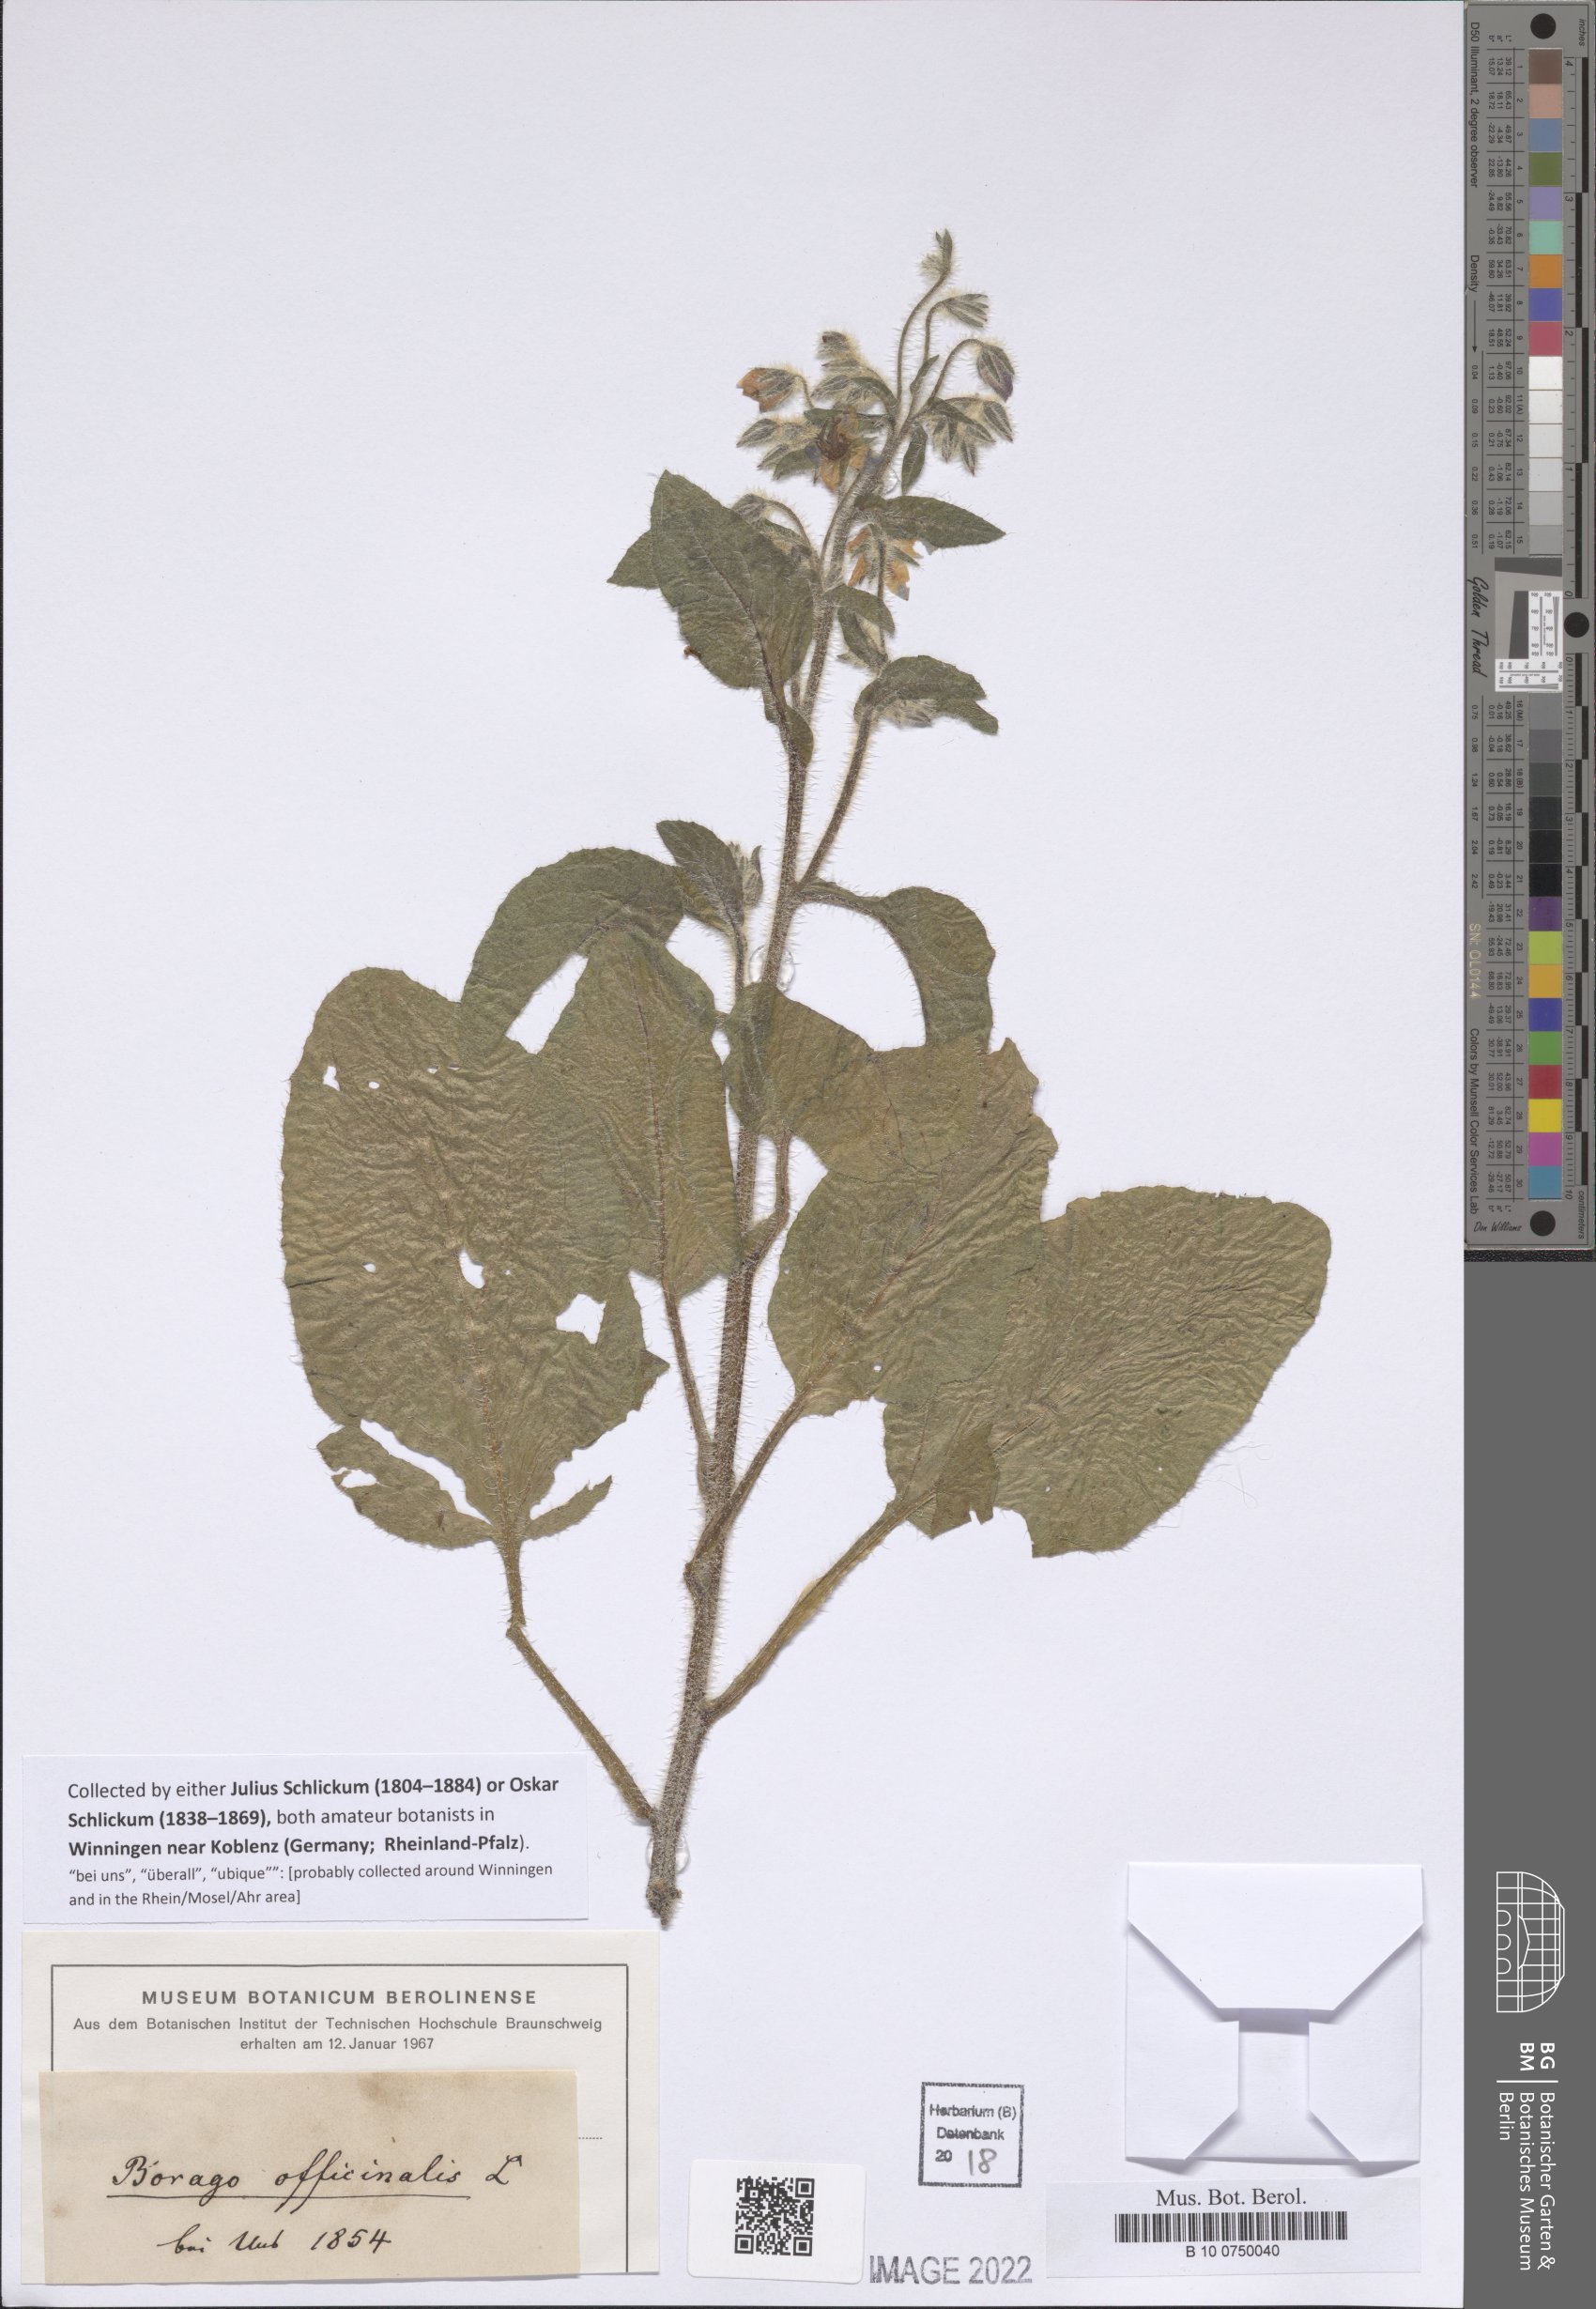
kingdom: Plantae
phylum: Tracheophyta
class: Magnoliopsida
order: Boraginales
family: Boraginaceae
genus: Borago
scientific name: Borago officinalis
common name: Borage
